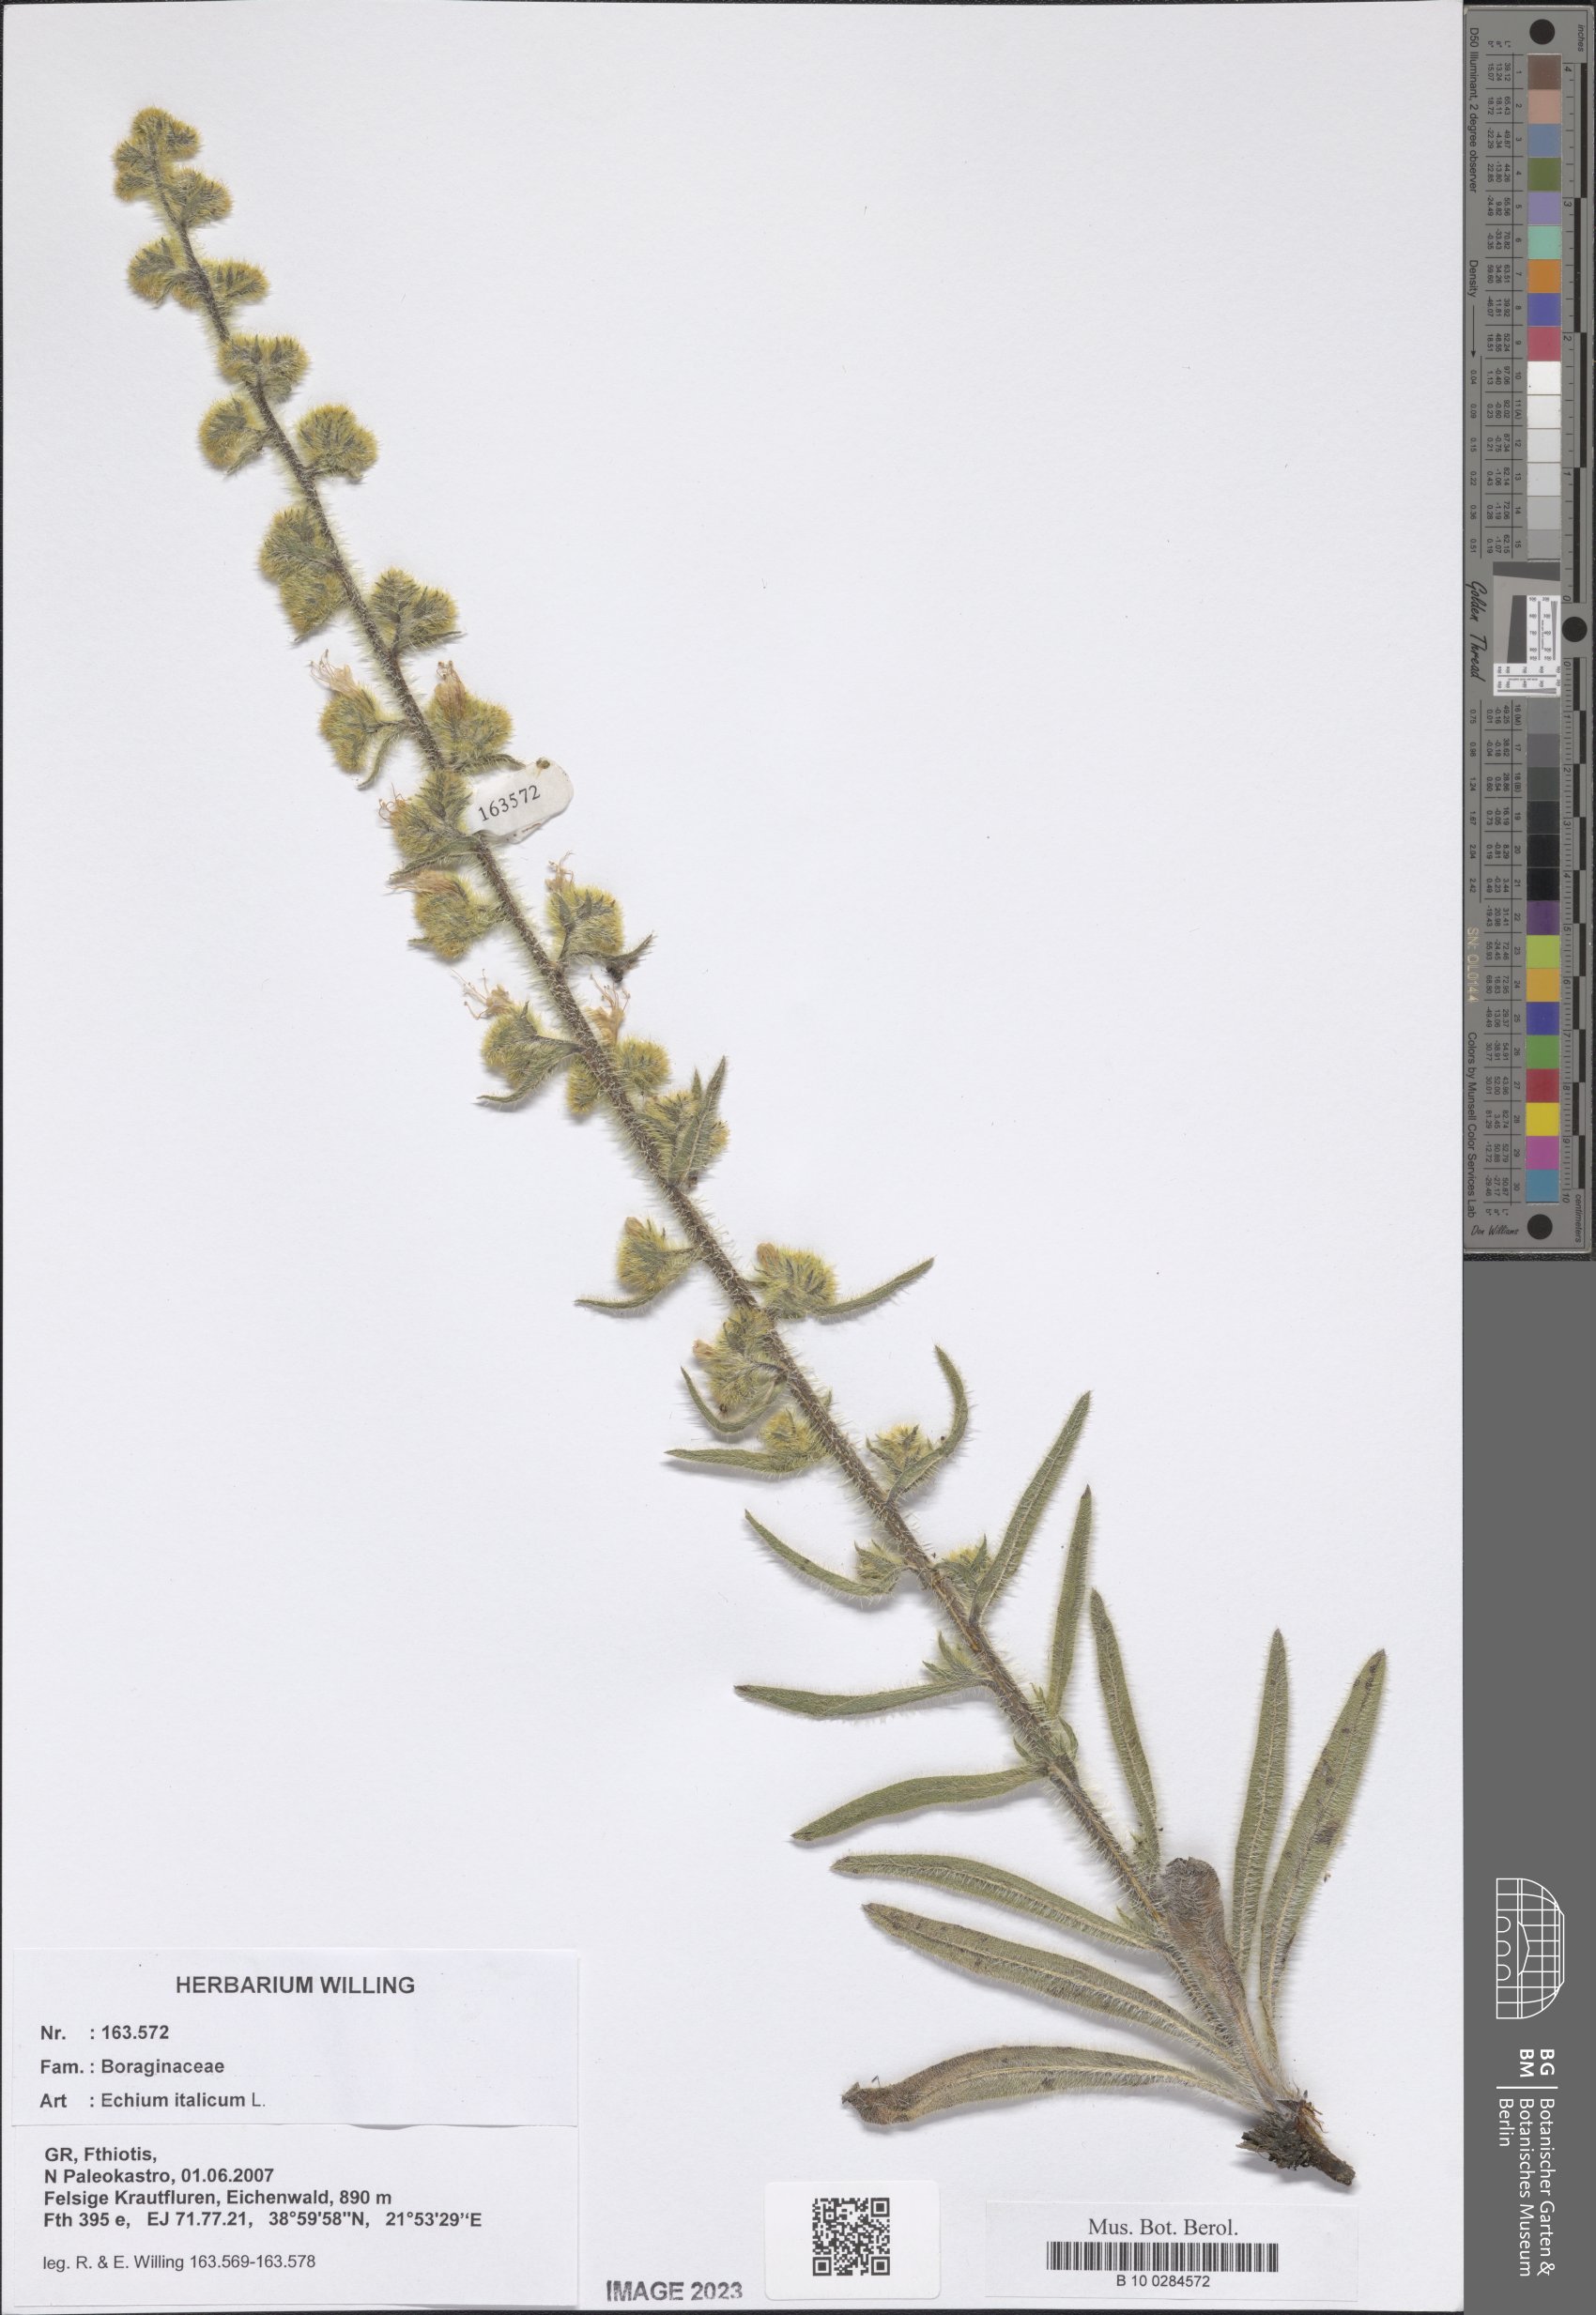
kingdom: Plantae
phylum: Tracheophyta
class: Magnoliopsida
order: Boraginales
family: Boraginaceae
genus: Echium
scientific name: Echium italicum
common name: Italian viper's bugloss
